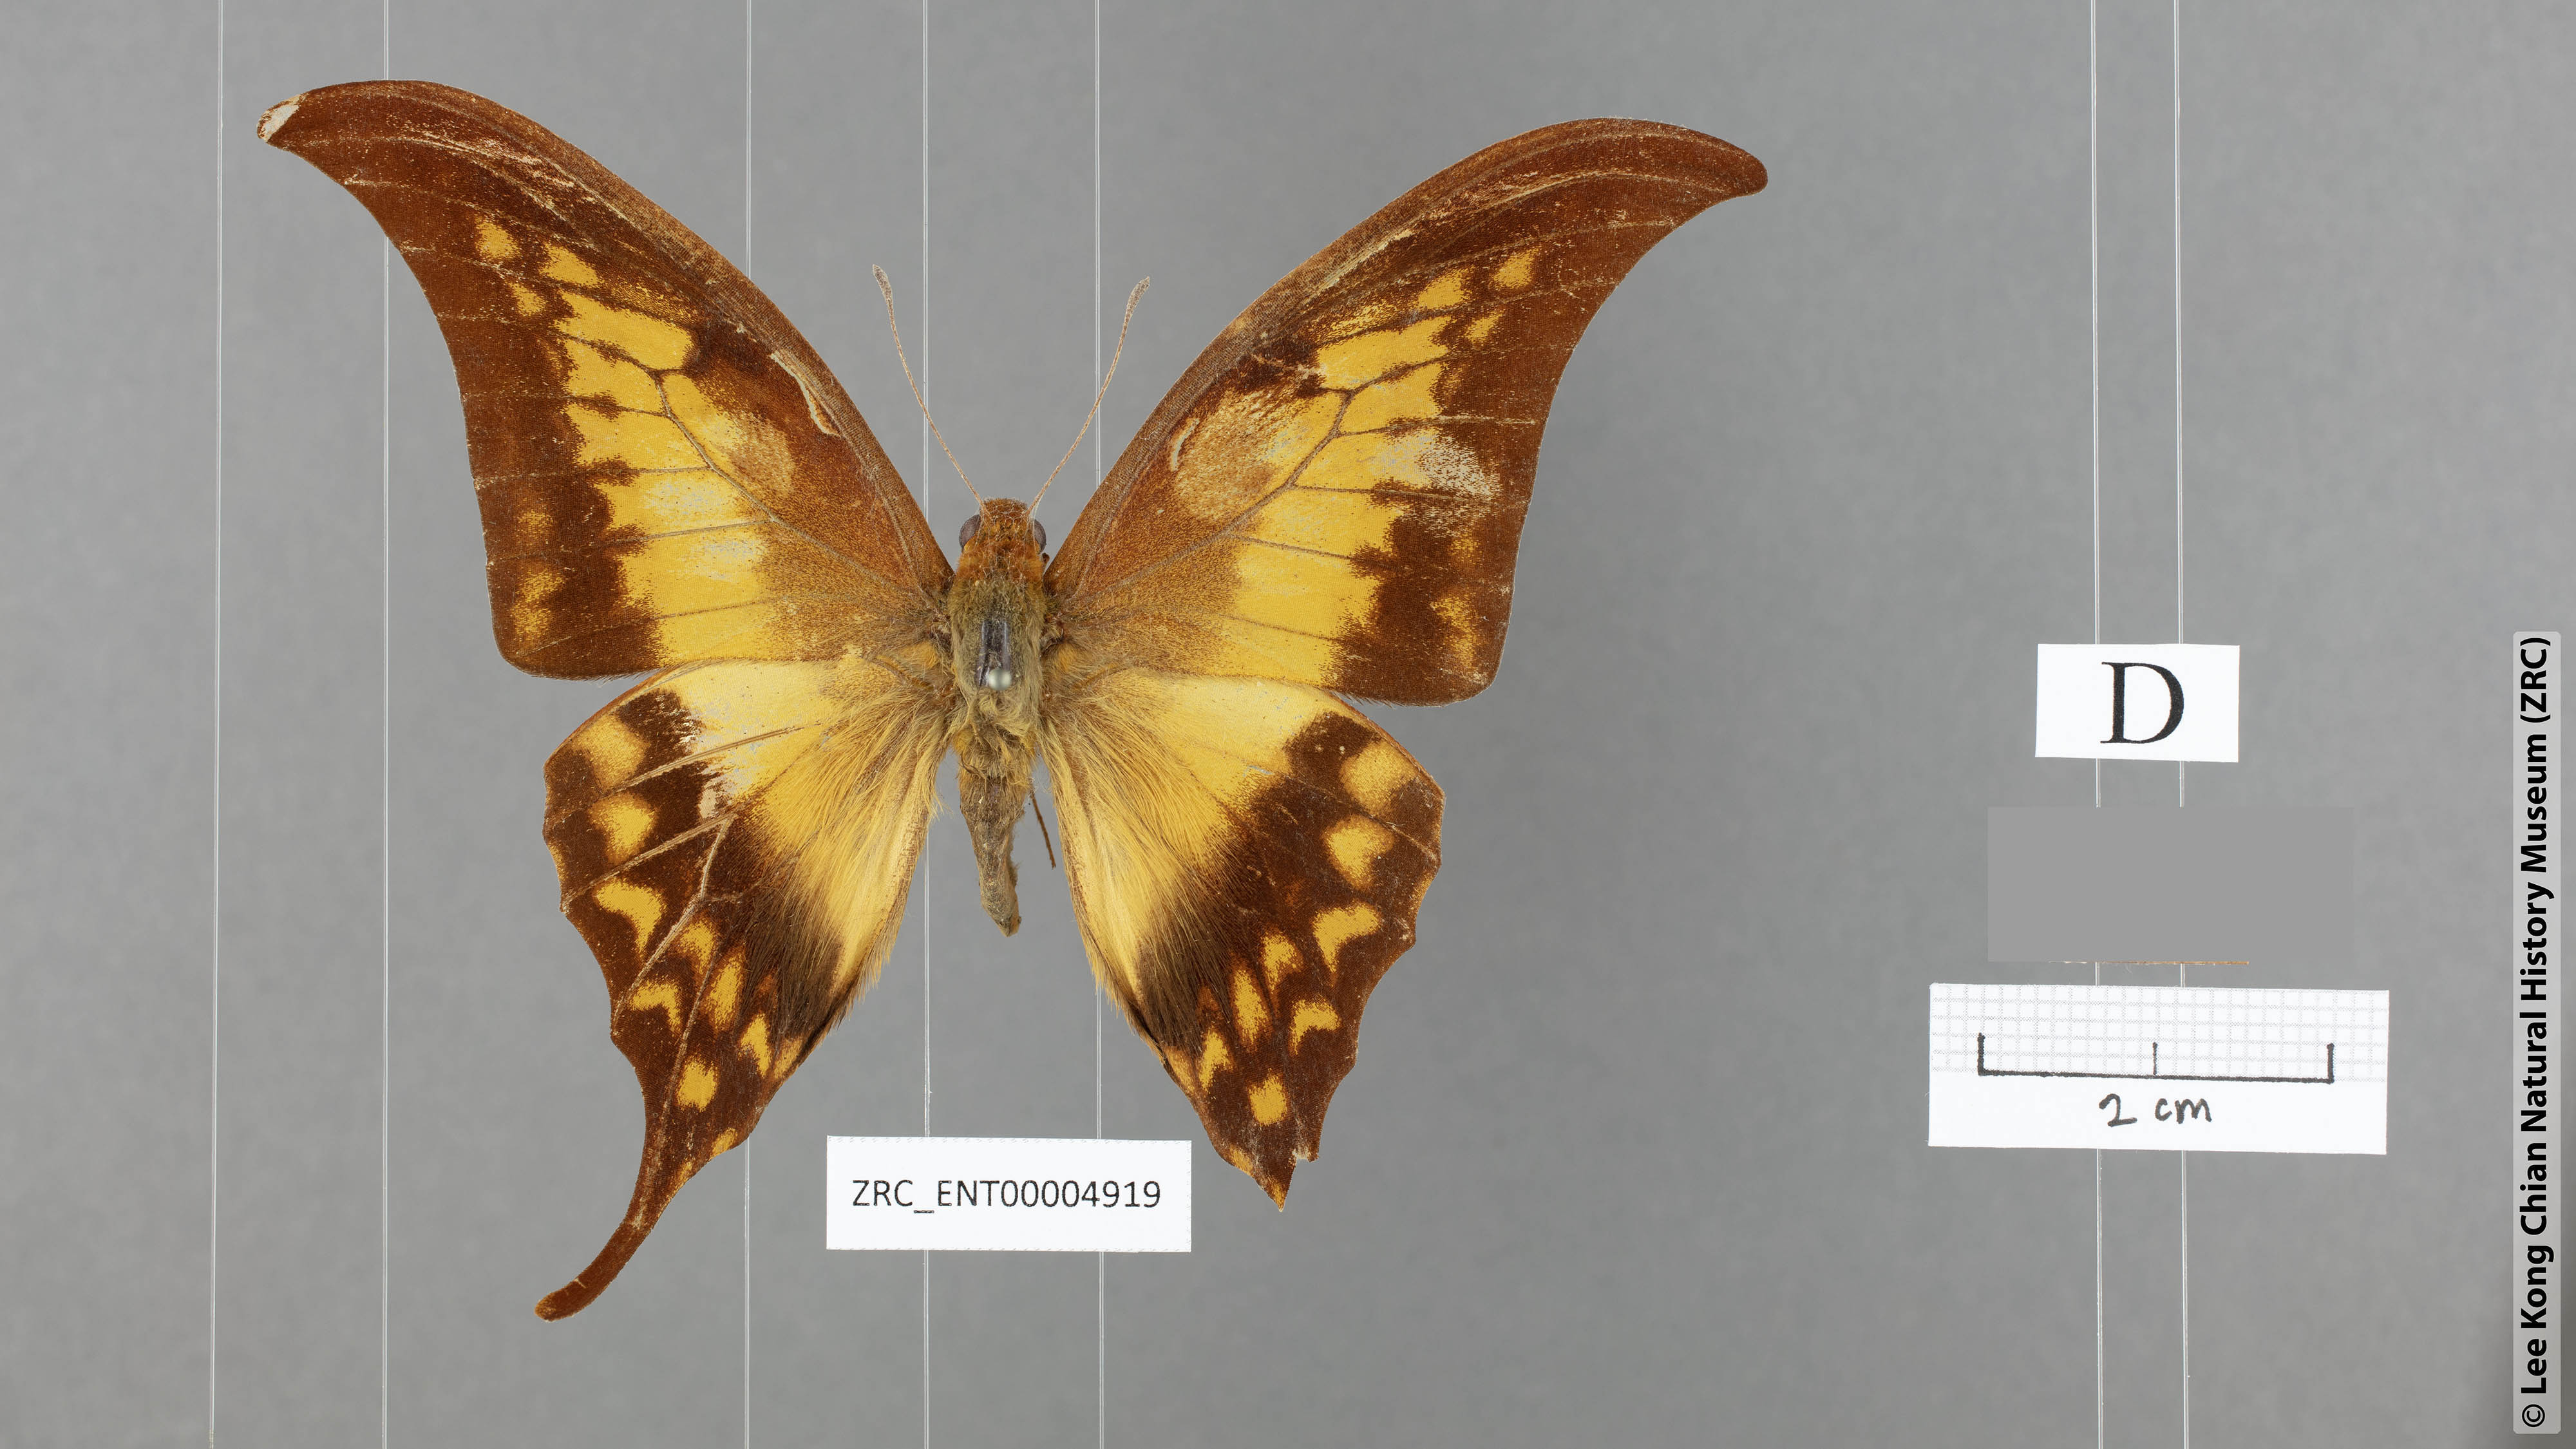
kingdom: Animalia
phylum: Arthropoda
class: Insecta
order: Lepidoptera
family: Papilionidae
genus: Meandrusa
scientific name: Meandrusa payeni
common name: Outlet sword
